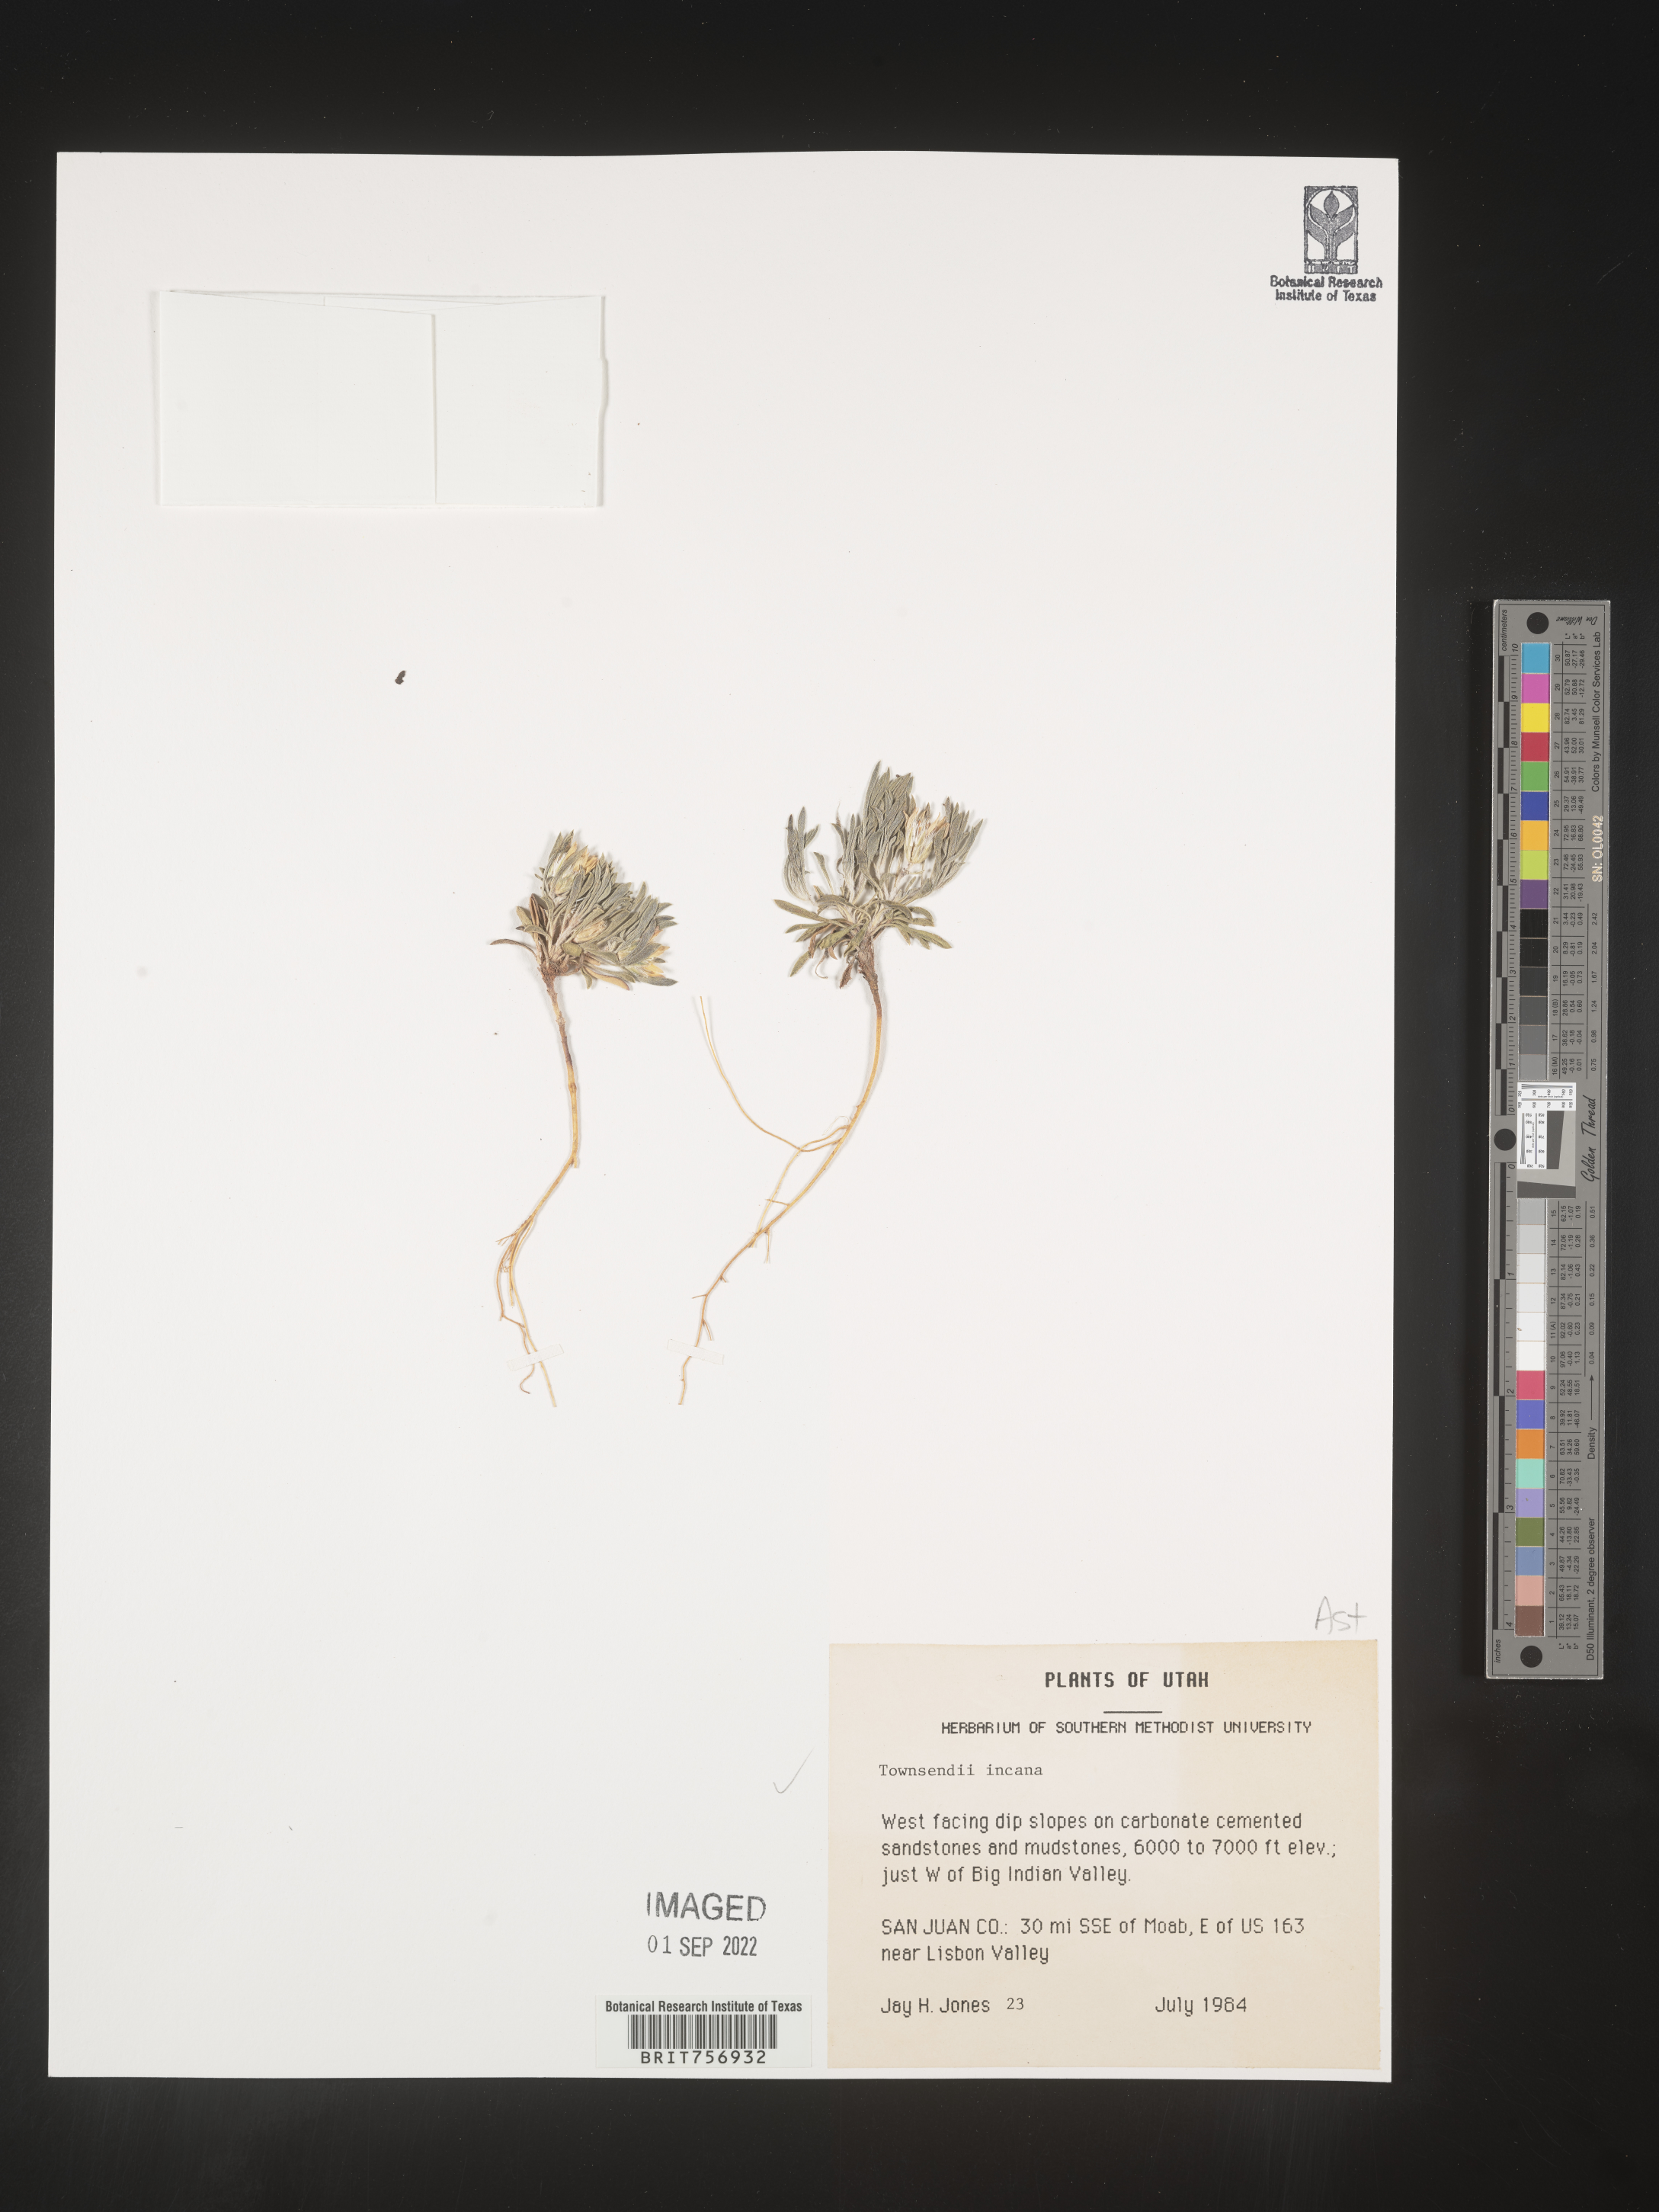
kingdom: Plantae
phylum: Tracheophyta
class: Magnoliopsida
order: Asterales
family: Asteraceae
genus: Townsendia
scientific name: Townsendia incana
